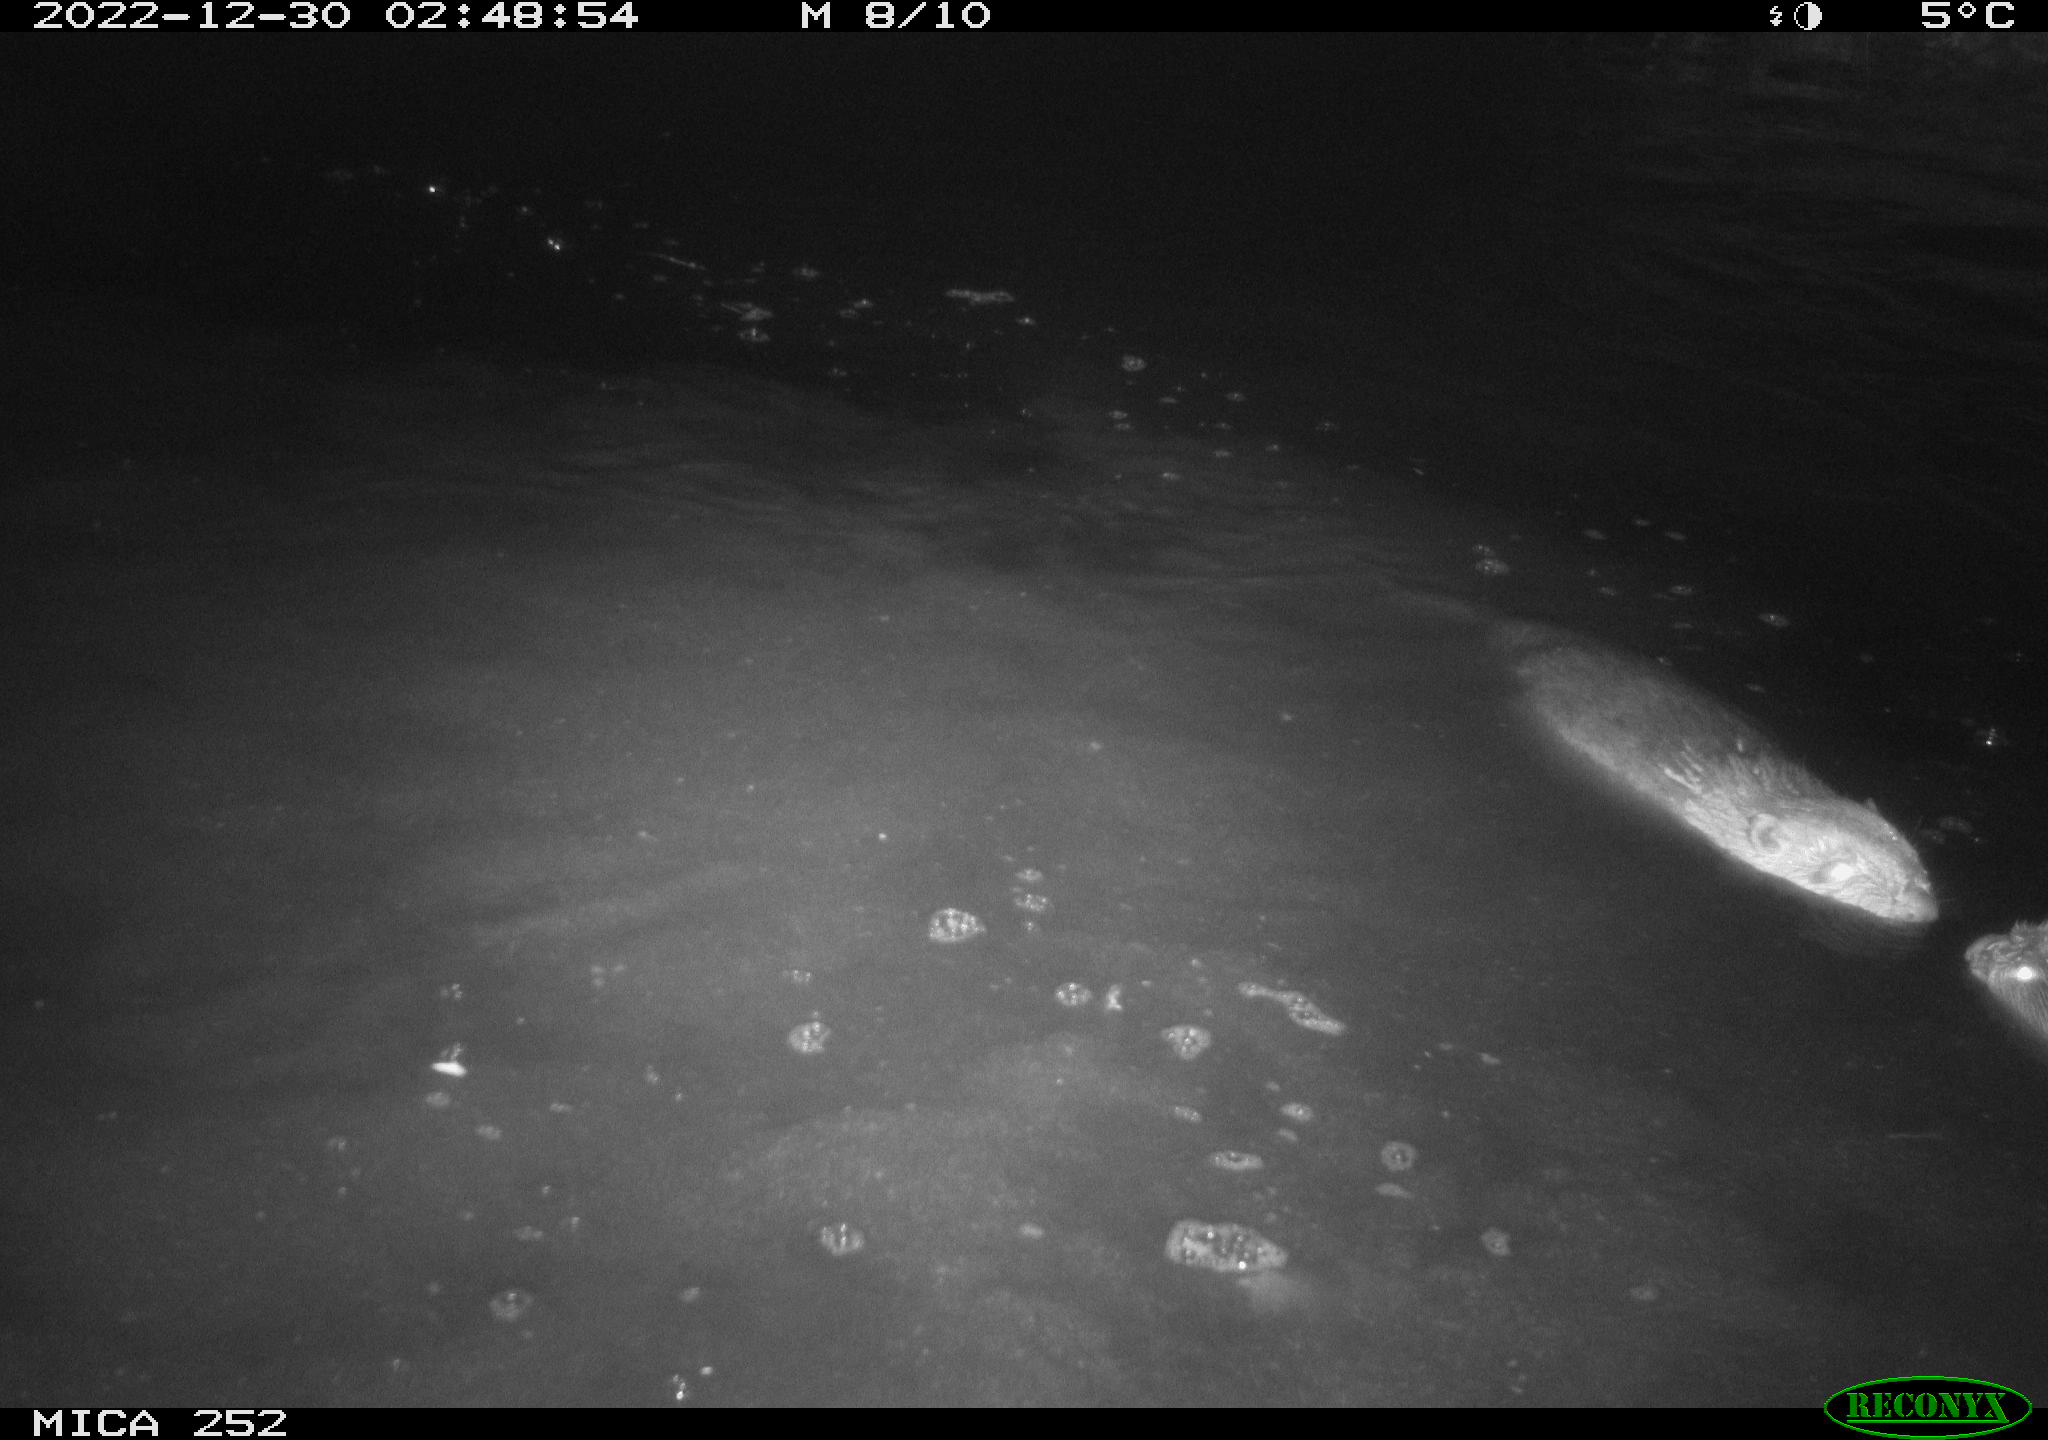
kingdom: Animalia
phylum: Chordata
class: Mammalia
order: Rodentia
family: Castoridae
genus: Castor
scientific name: Castor fiber
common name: Eurasian beaver
